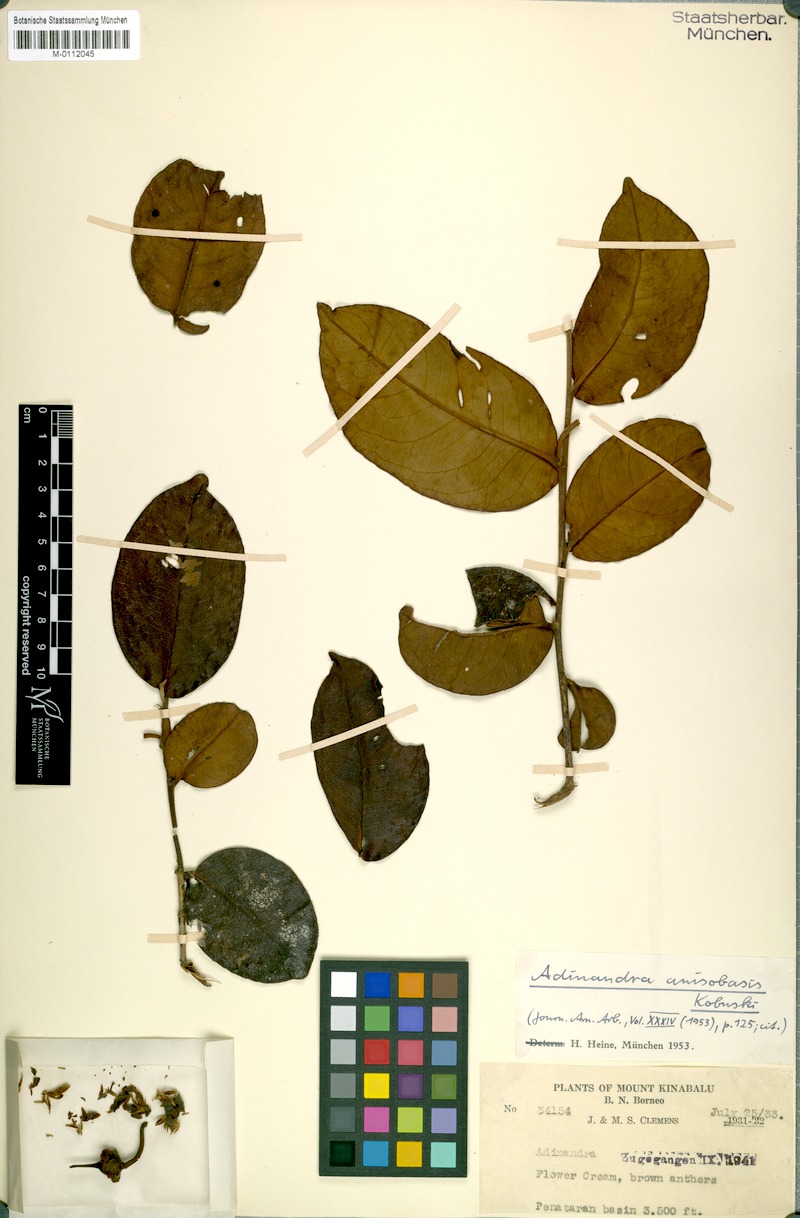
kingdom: Plantae
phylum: Tracheophyta
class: Magnoliopsida
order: Ericales
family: Pentaphylacaceae
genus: Adinandra
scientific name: Adinandra anisobasis
